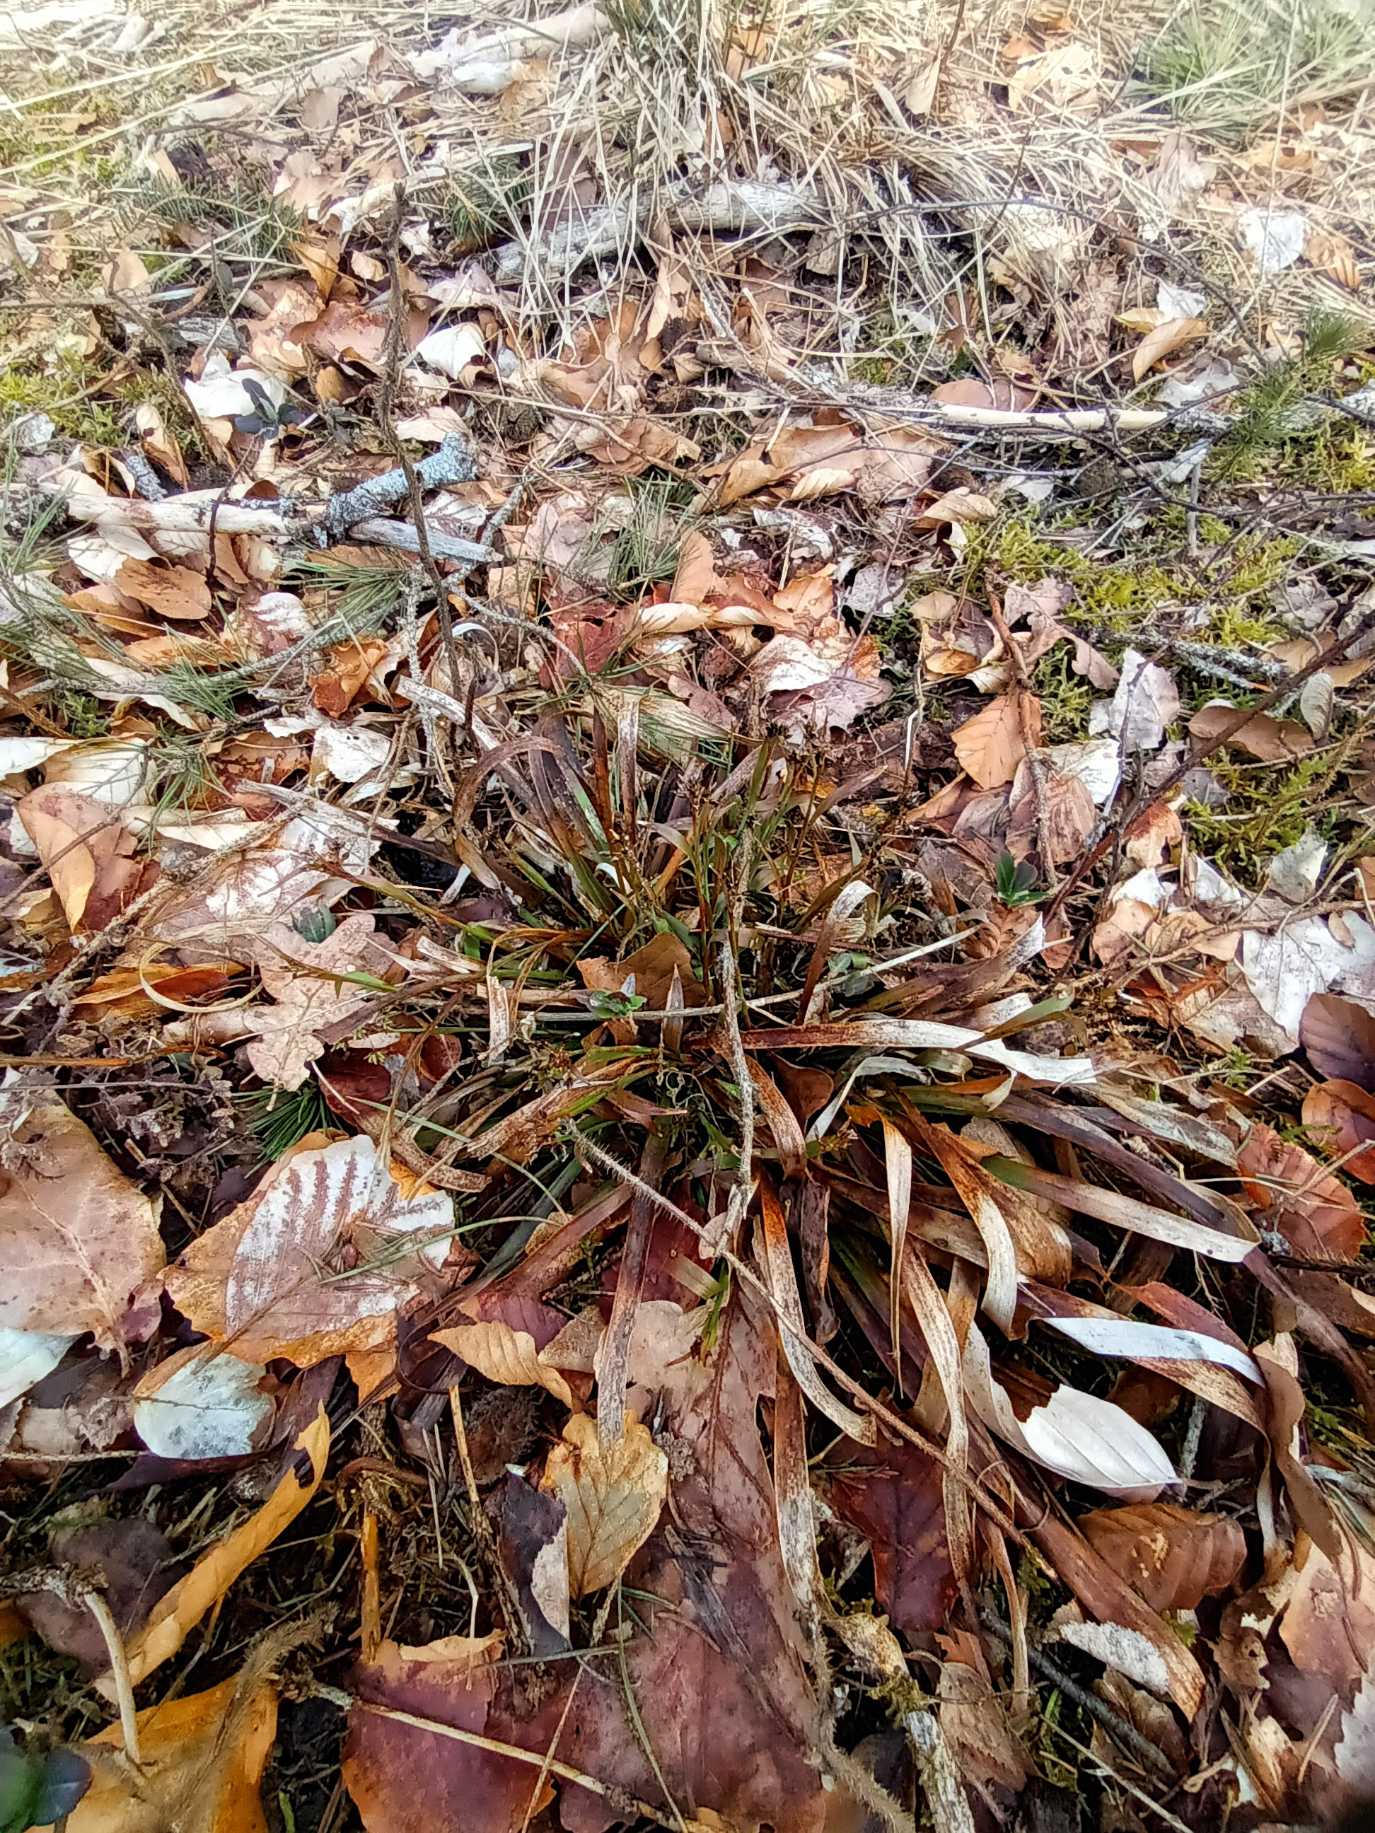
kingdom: Plantae
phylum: Tracheophyta
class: Liliopsida
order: Poales
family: Juncaceae
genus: Luzula
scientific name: Luzula pilosa
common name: Håret frytle
